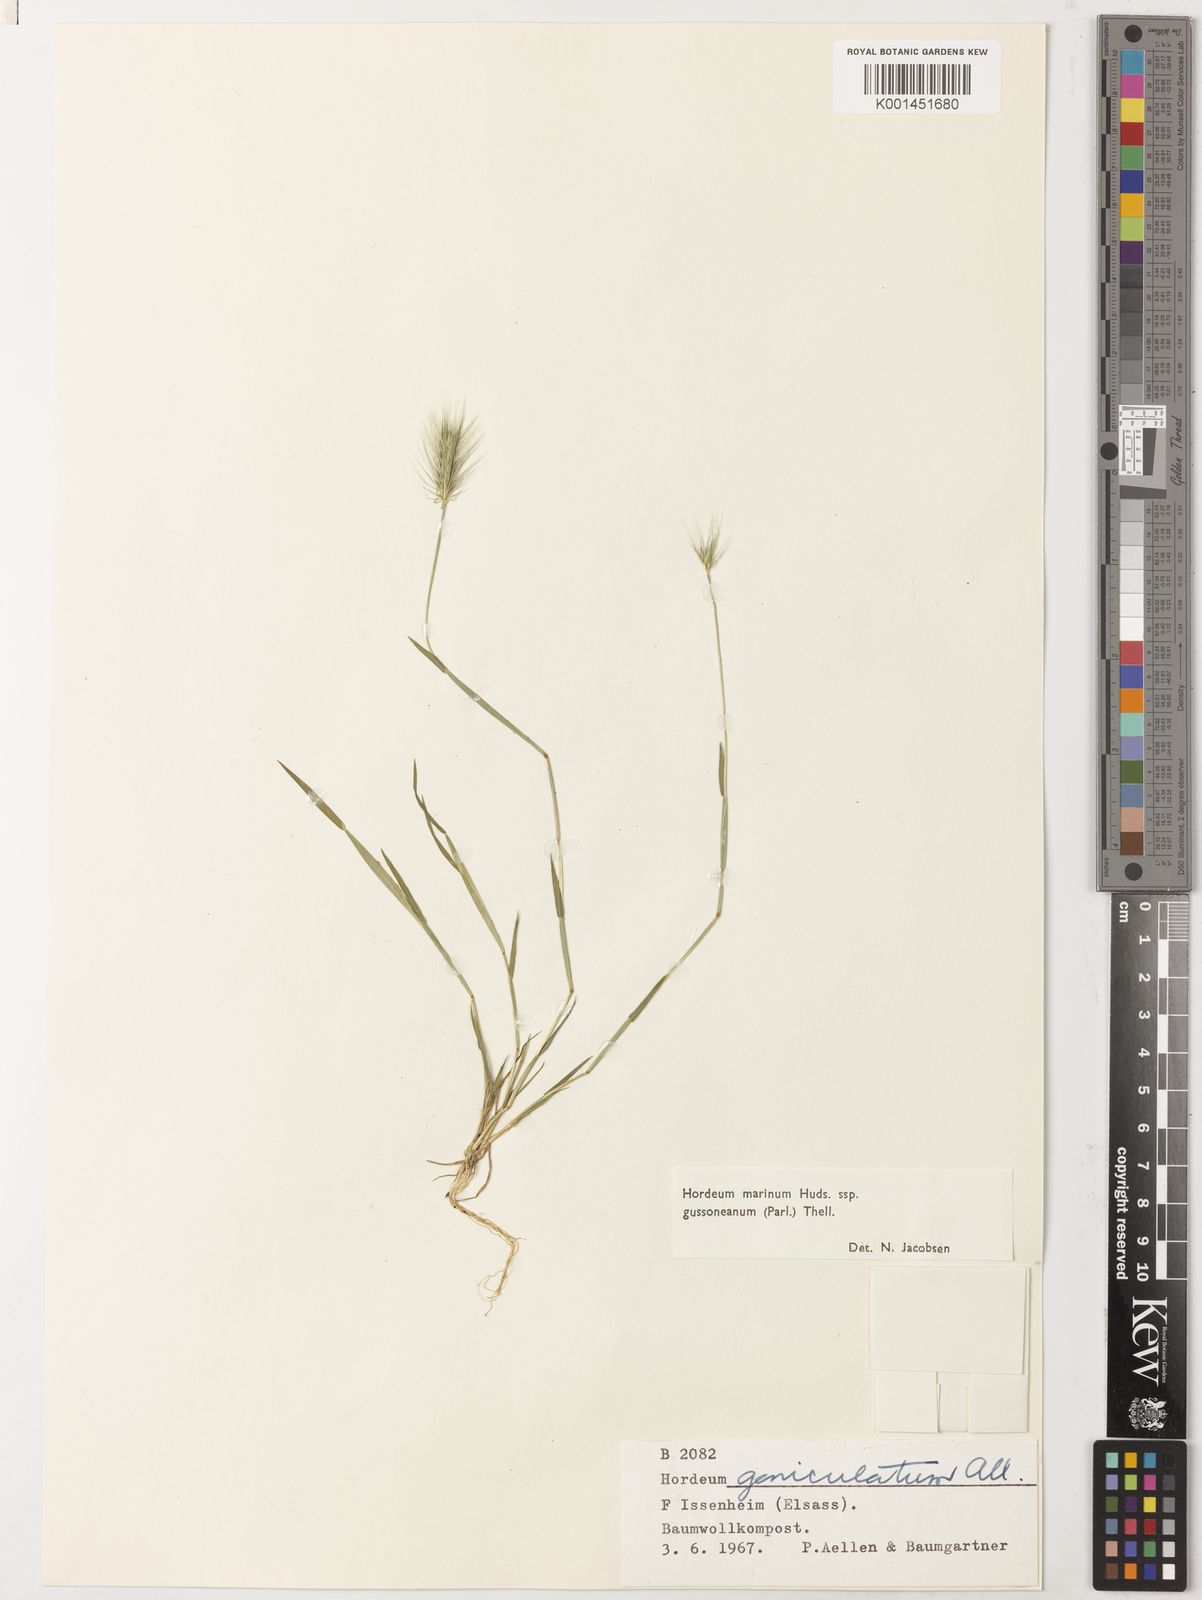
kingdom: Plantae
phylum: Tracheophyta
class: Liliopsida
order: Poales
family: Poaceae
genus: Hordeum
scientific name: Hordeum marinum
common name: Sea barley
